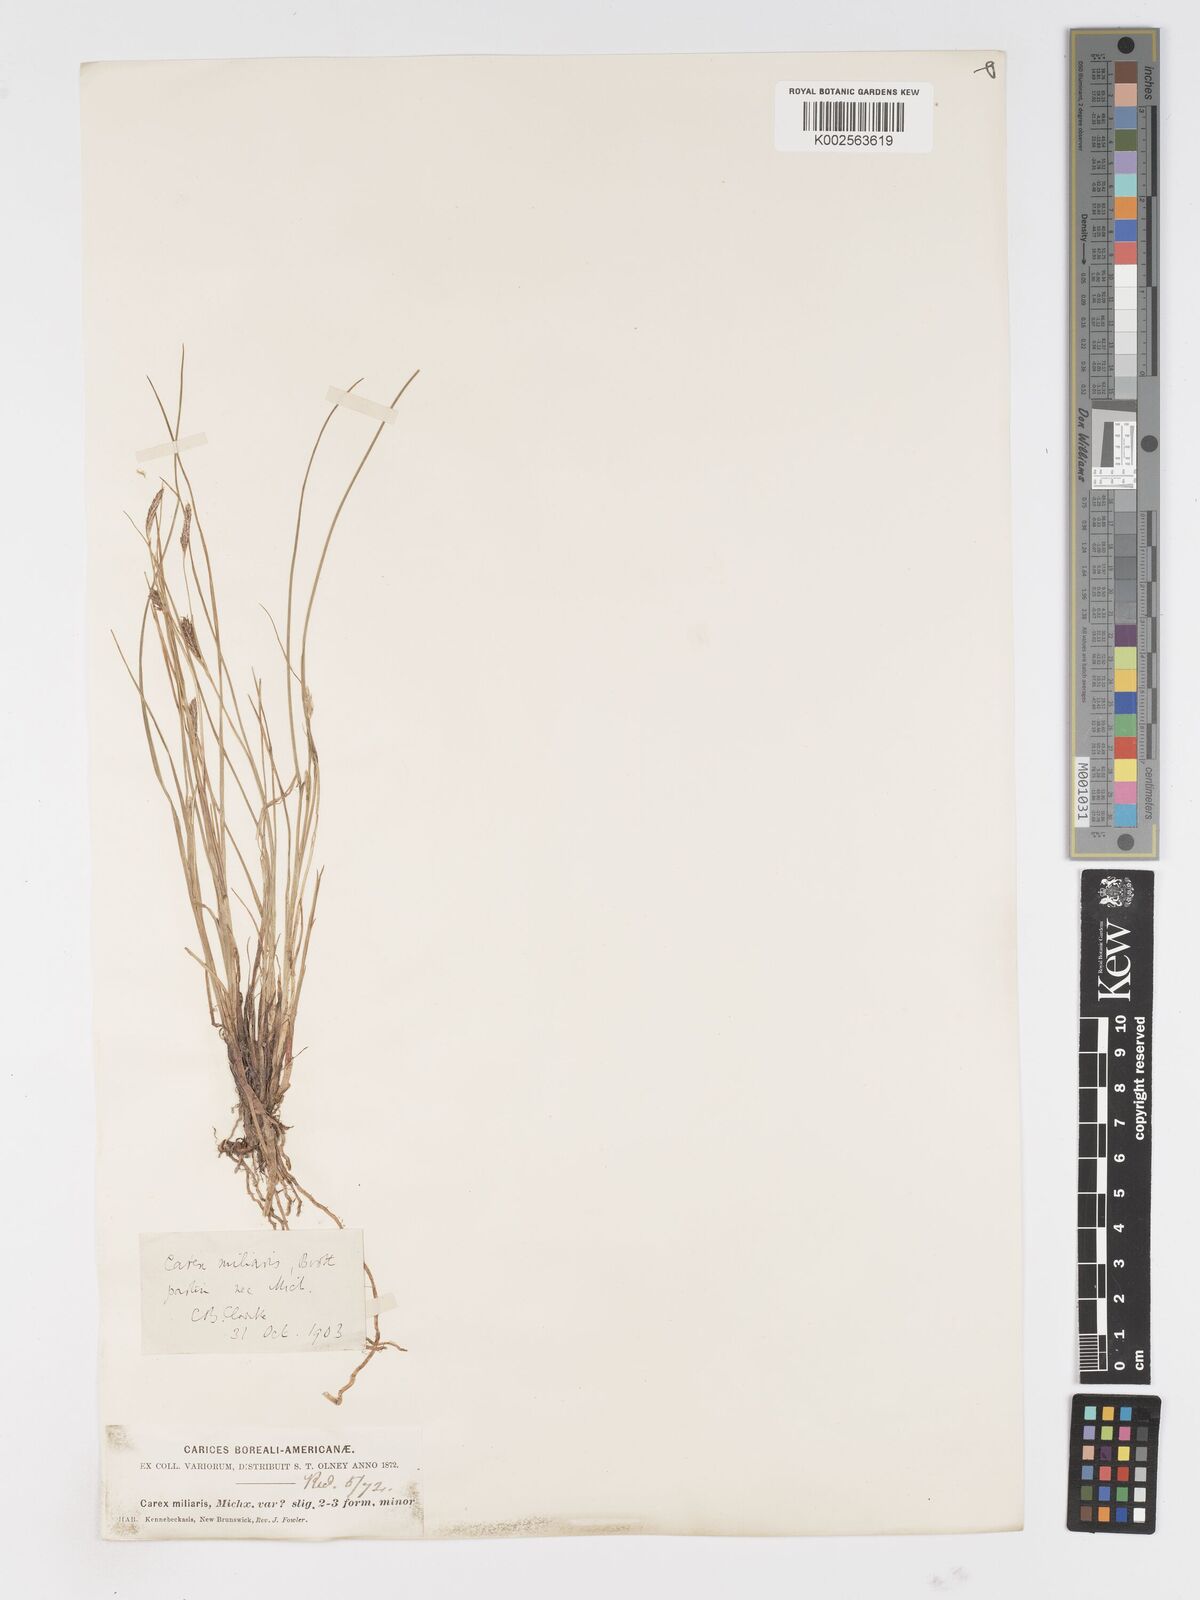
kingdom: Plantae
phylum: Tracheophyta
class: Liliopsida
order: Poales
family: Cyperaceae
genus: Carex
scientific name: Carex
